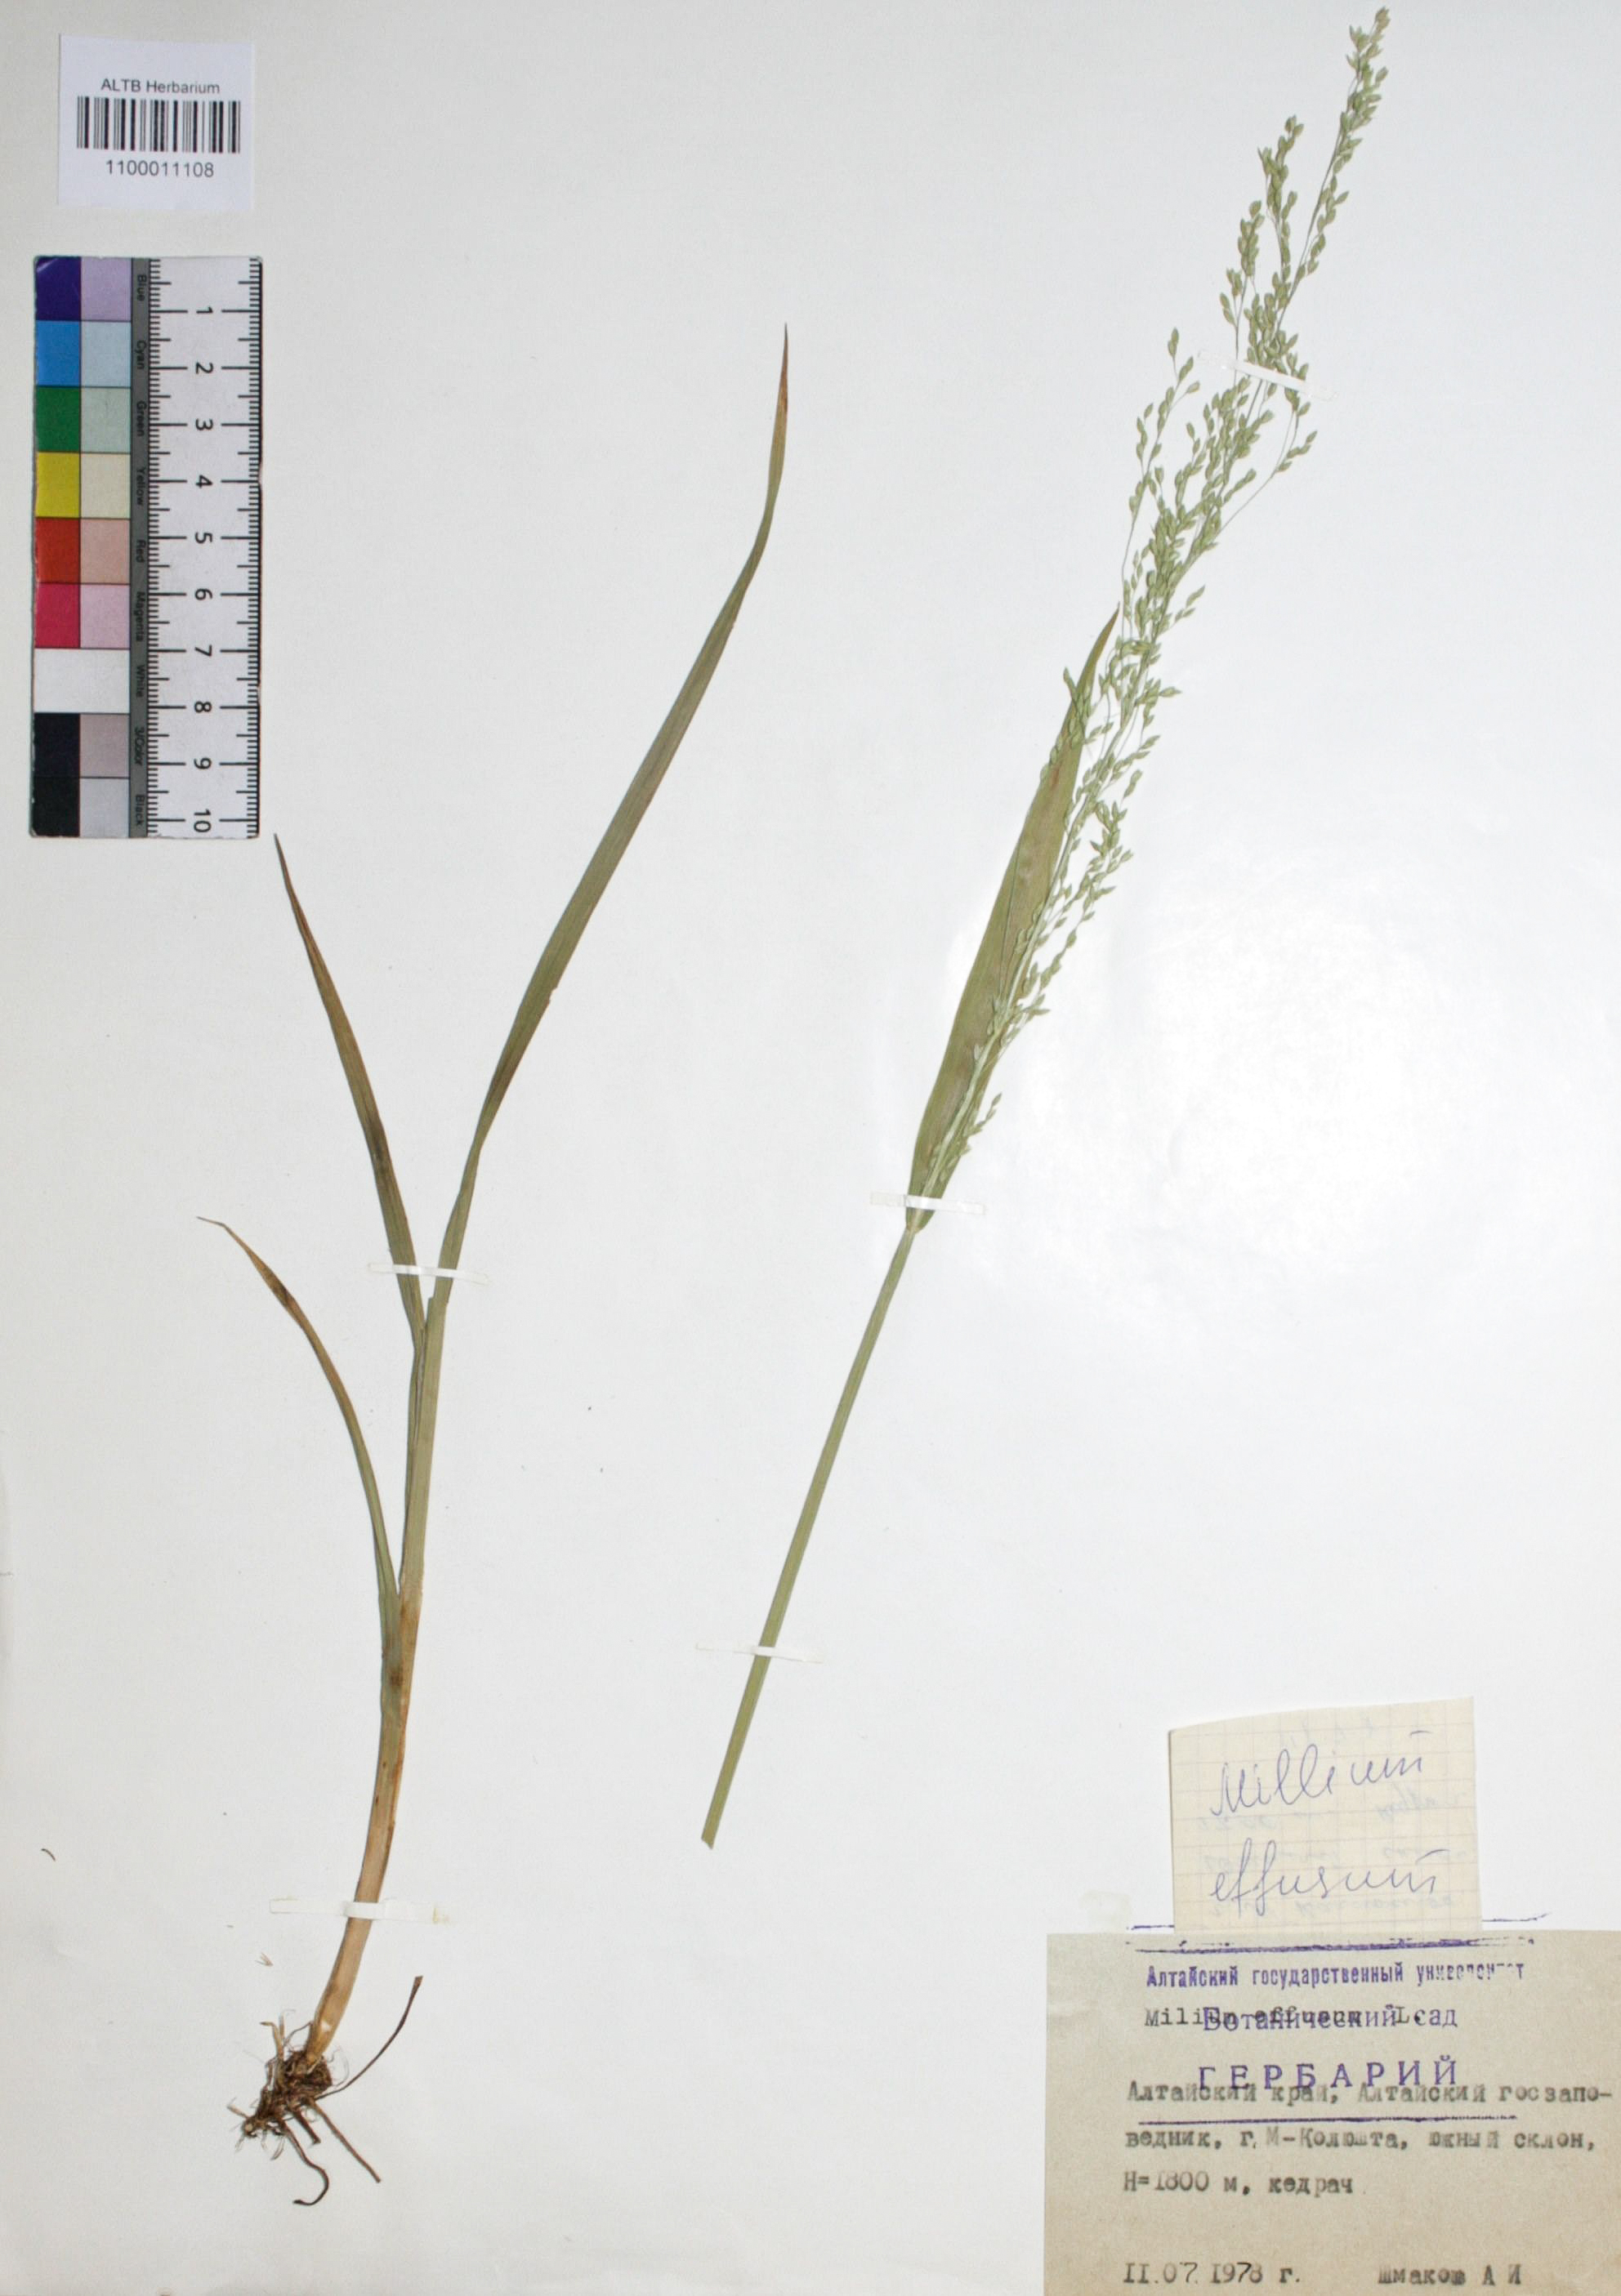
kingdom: Plantae
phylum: Tracheophyta
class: Liliopsida
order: Poales
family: Poaceae
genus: Milium
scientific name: Milium effusum
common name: Wood millet
